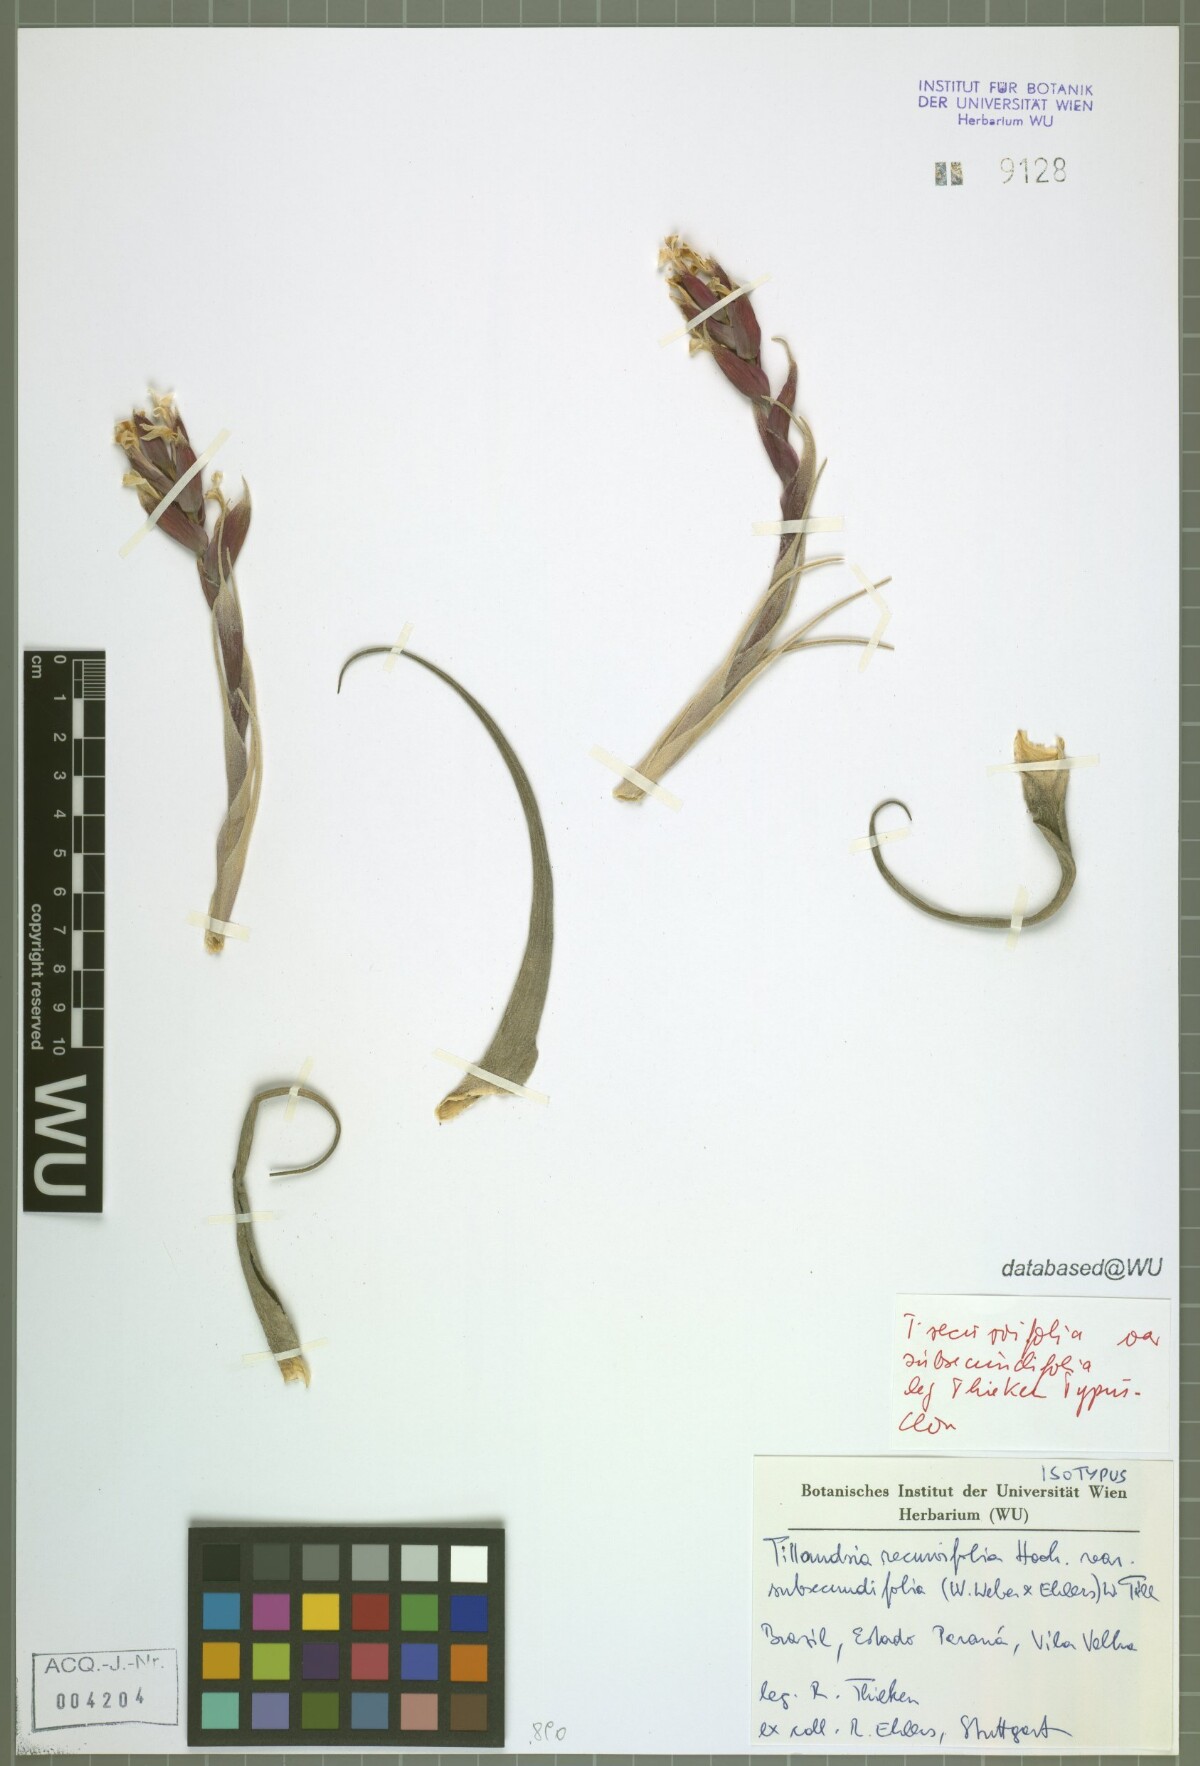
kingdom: Plantae
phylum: Tracheophyta
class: Liliopsida
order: Poales
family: Bromeliaceae
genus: Tillandsia
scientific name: Tillandsia leonamiana
